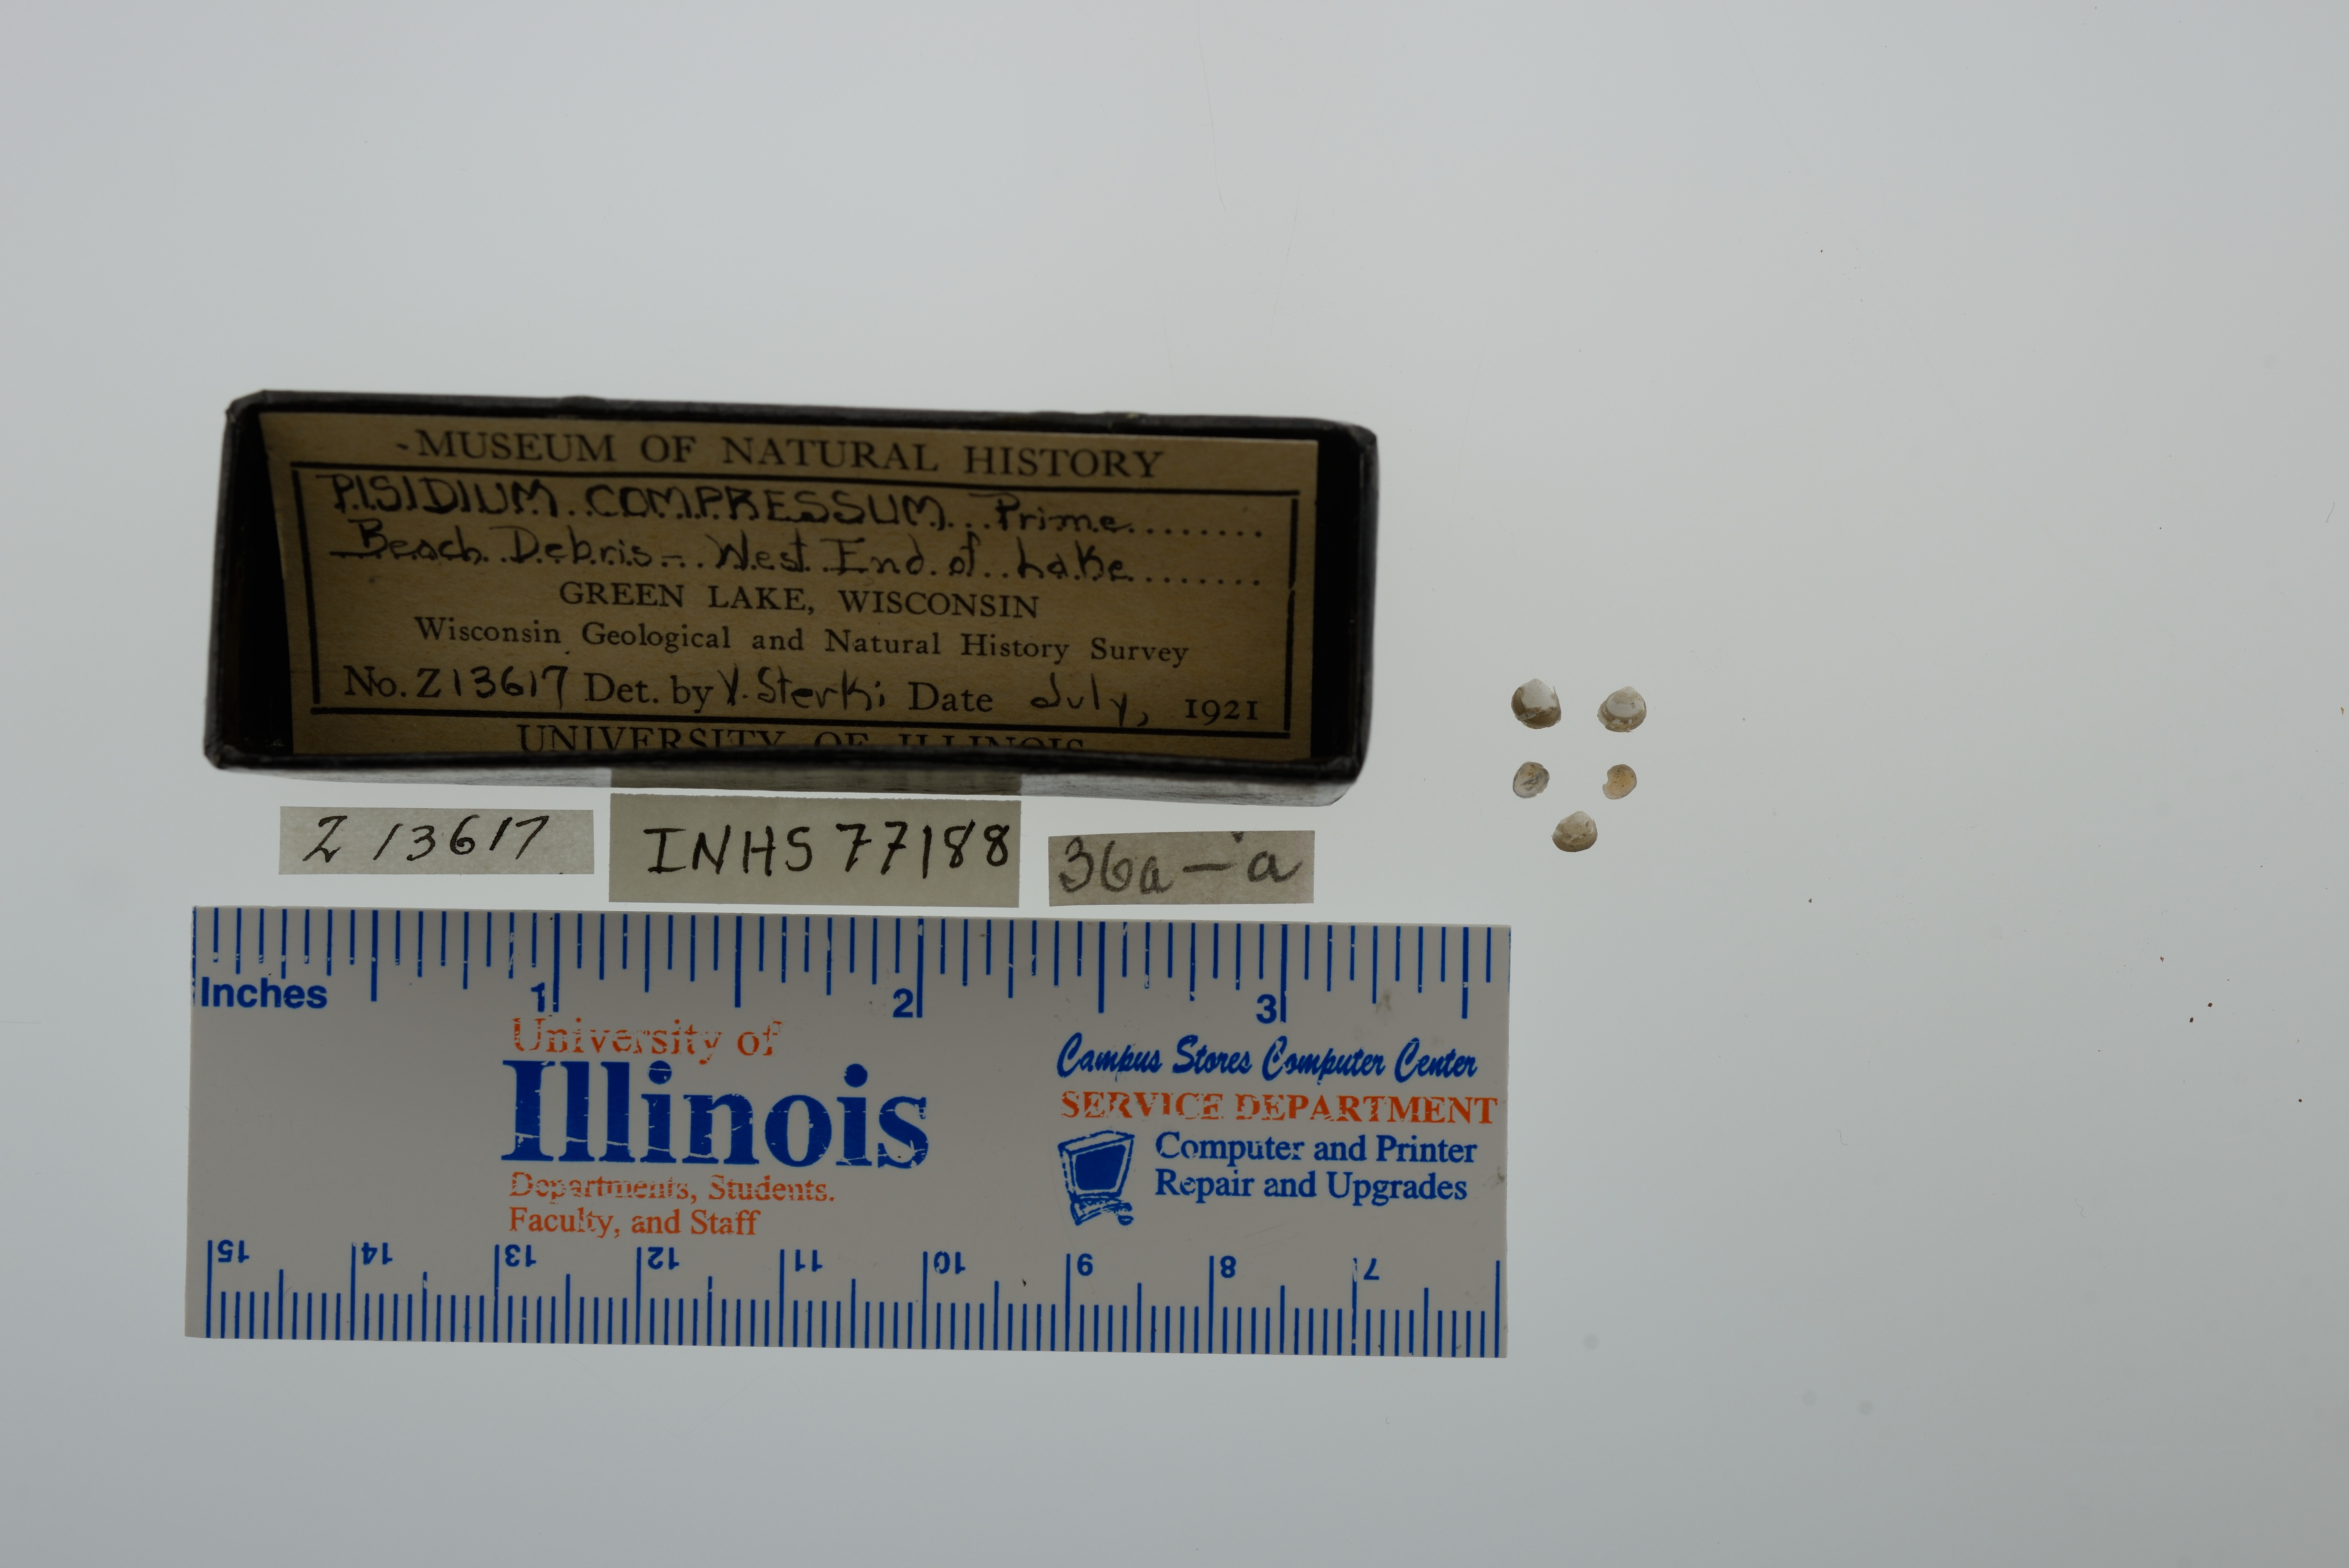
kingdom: Animalia
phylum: Mollusca
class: Bivalvia
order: Sphaeriida
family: Sphaeriidae
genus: Euglesa
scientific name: Euglesa compressa
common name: Ridgedbeak peaclam
